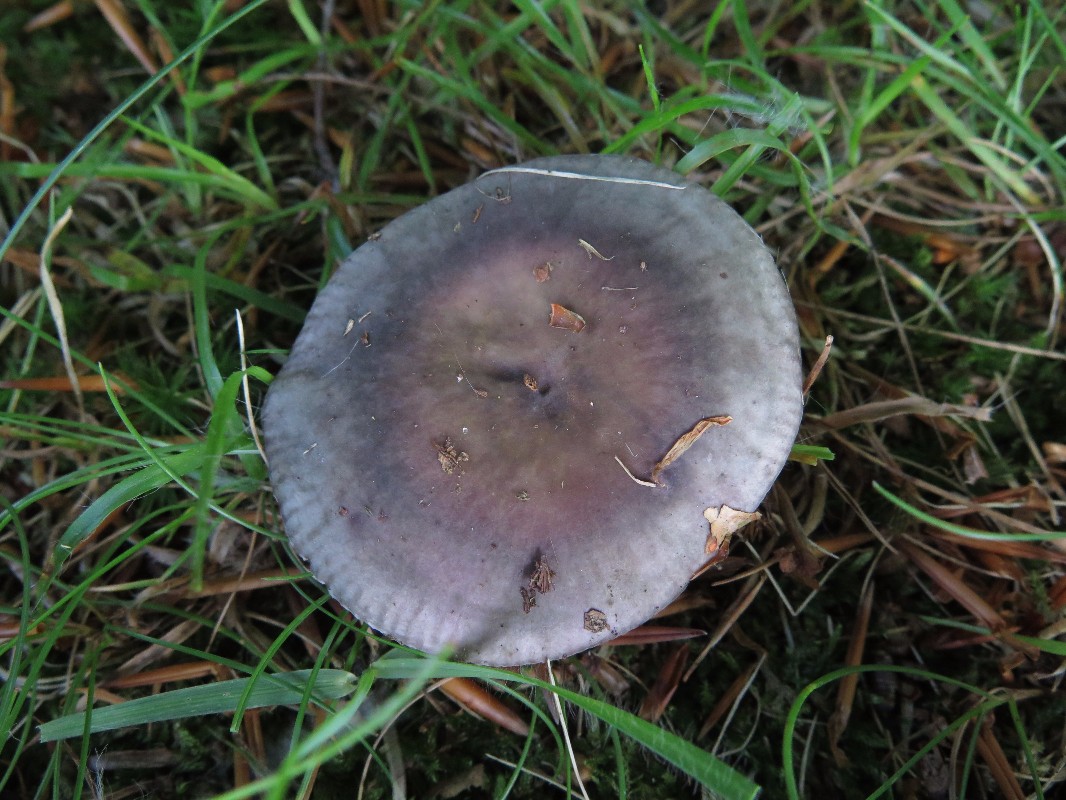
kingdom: Fungi
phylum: Basidiomycota
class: Agaricomycetes
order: Russulales
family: Russulaceae
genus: Russula
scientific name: Russula ionochlora
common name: violetgrøn skørhat
